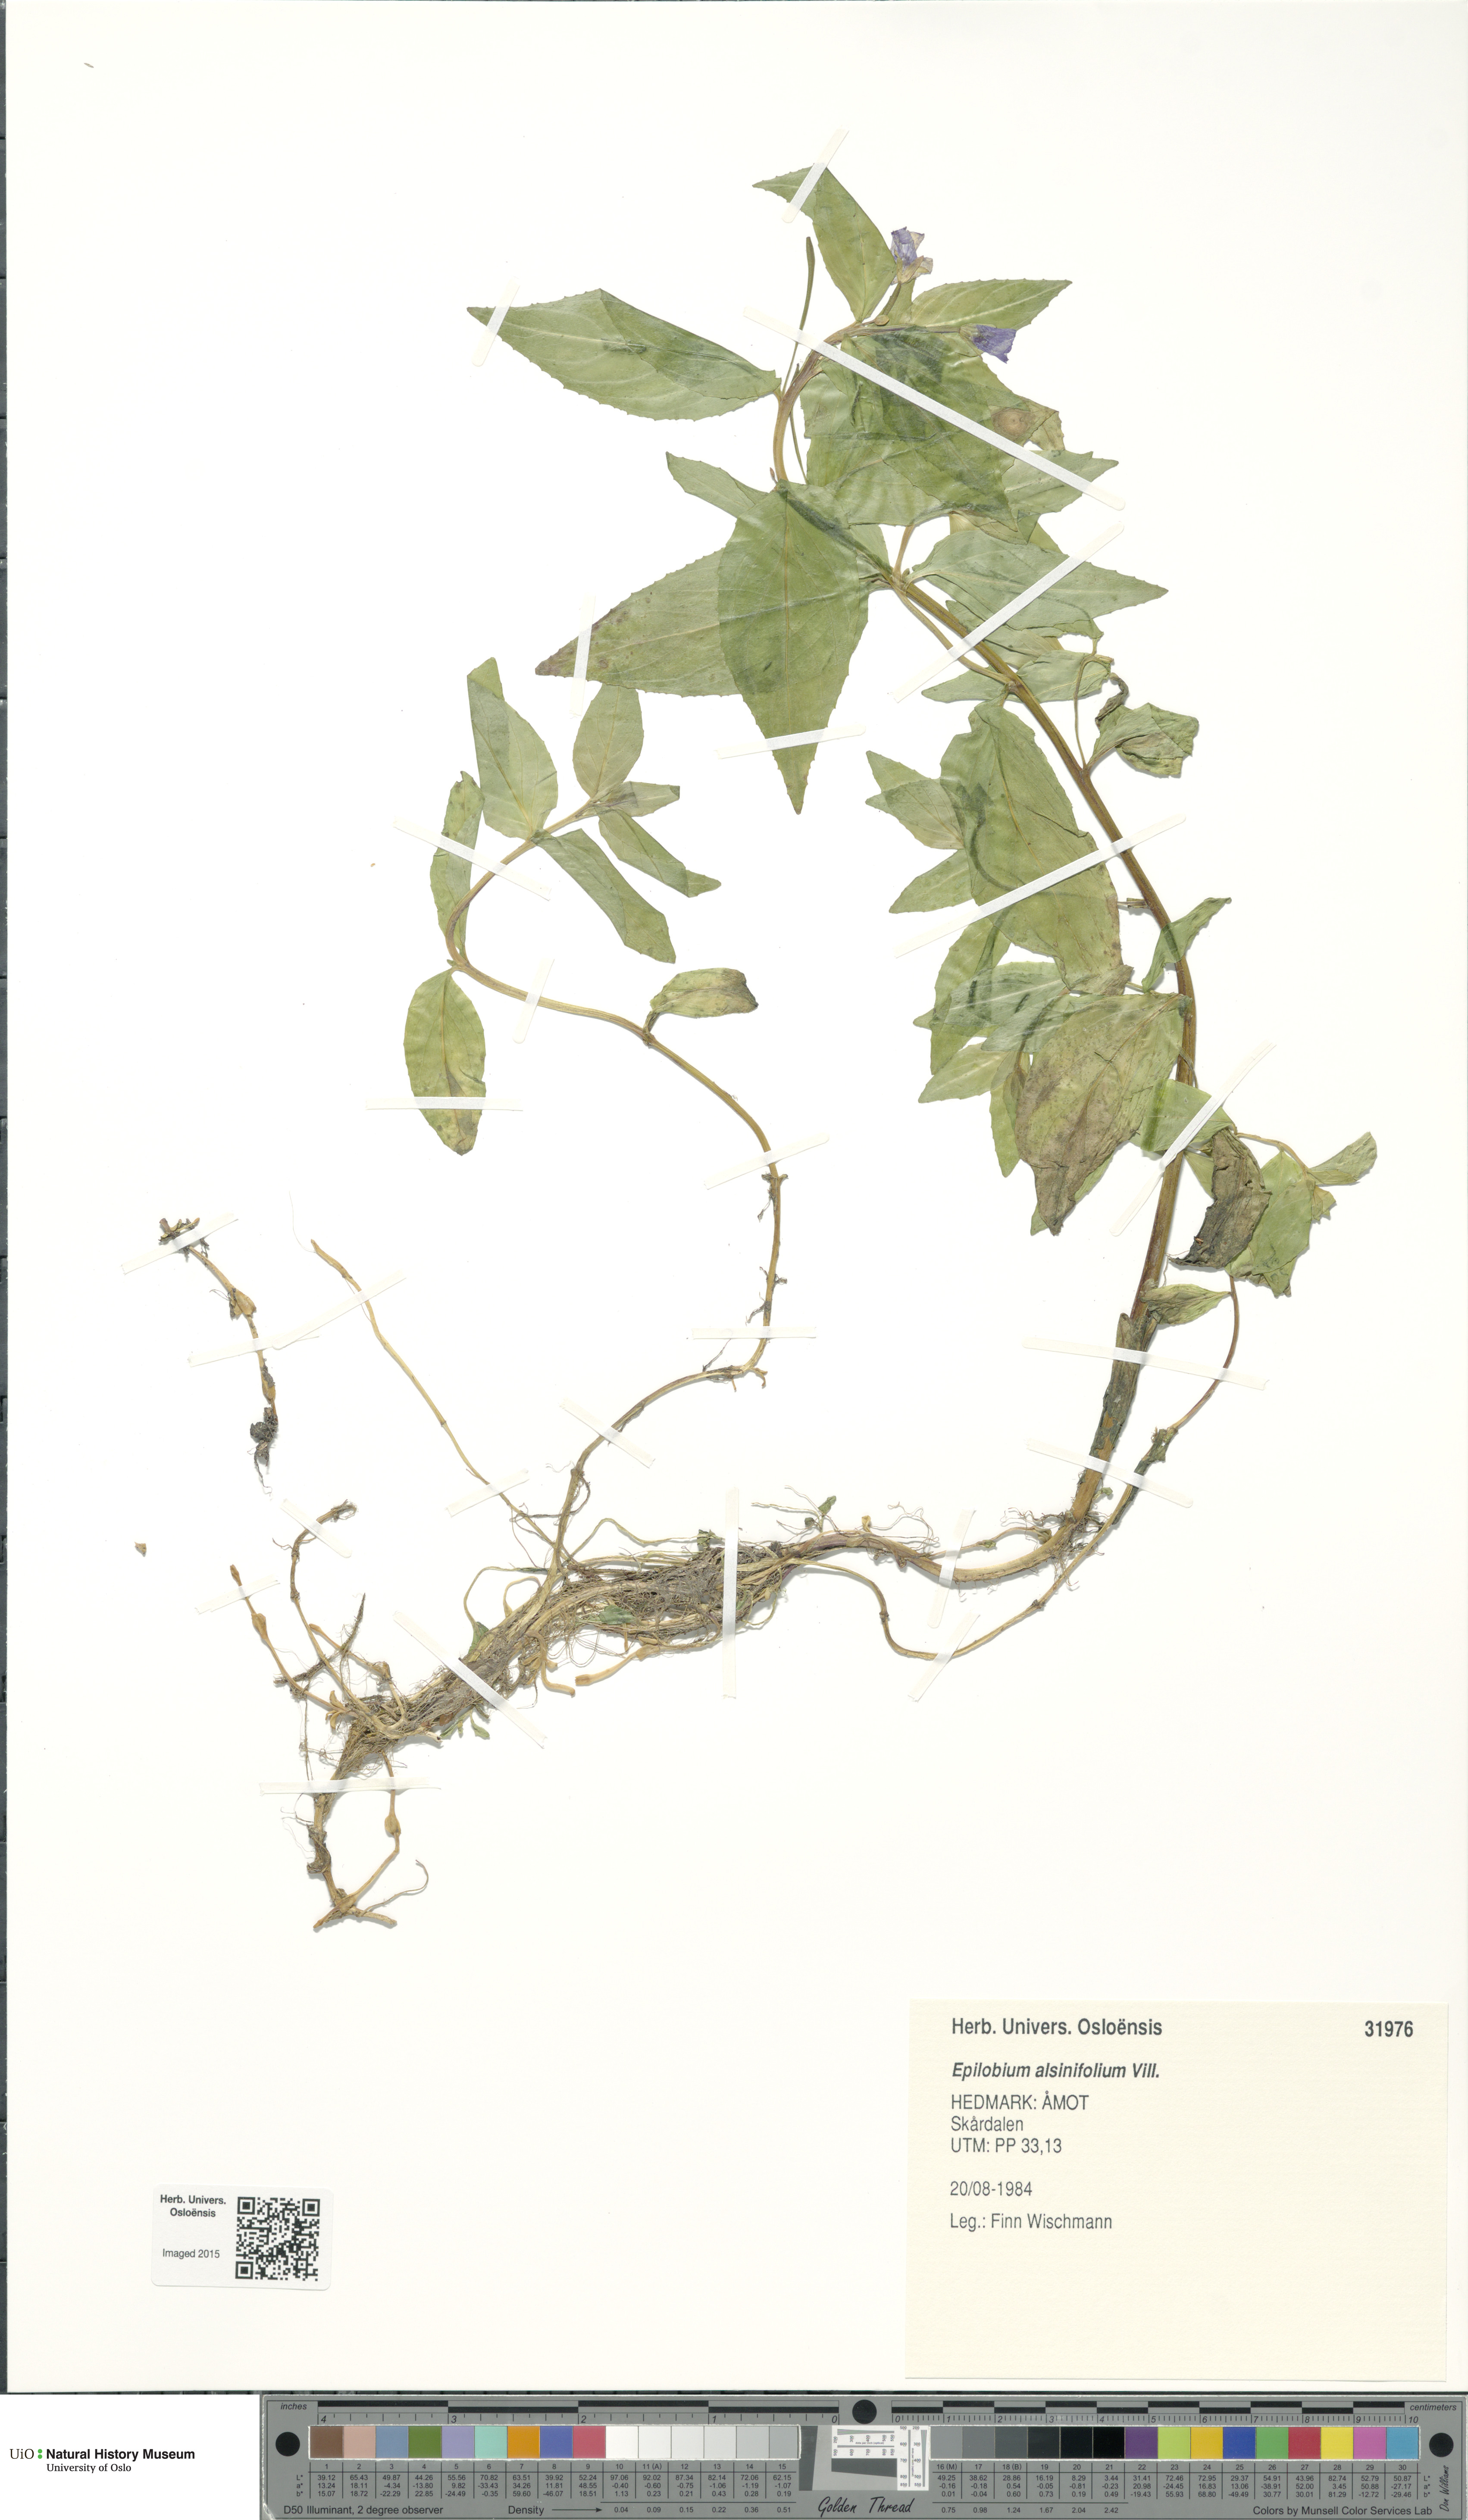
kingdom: Plantae
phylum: Tracheophyta
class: Magnoliopsida
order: Myrtales
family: Onagraceae
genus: Epilobium
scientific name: Epilobium alsinifolium
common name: Chickweed willowherb
